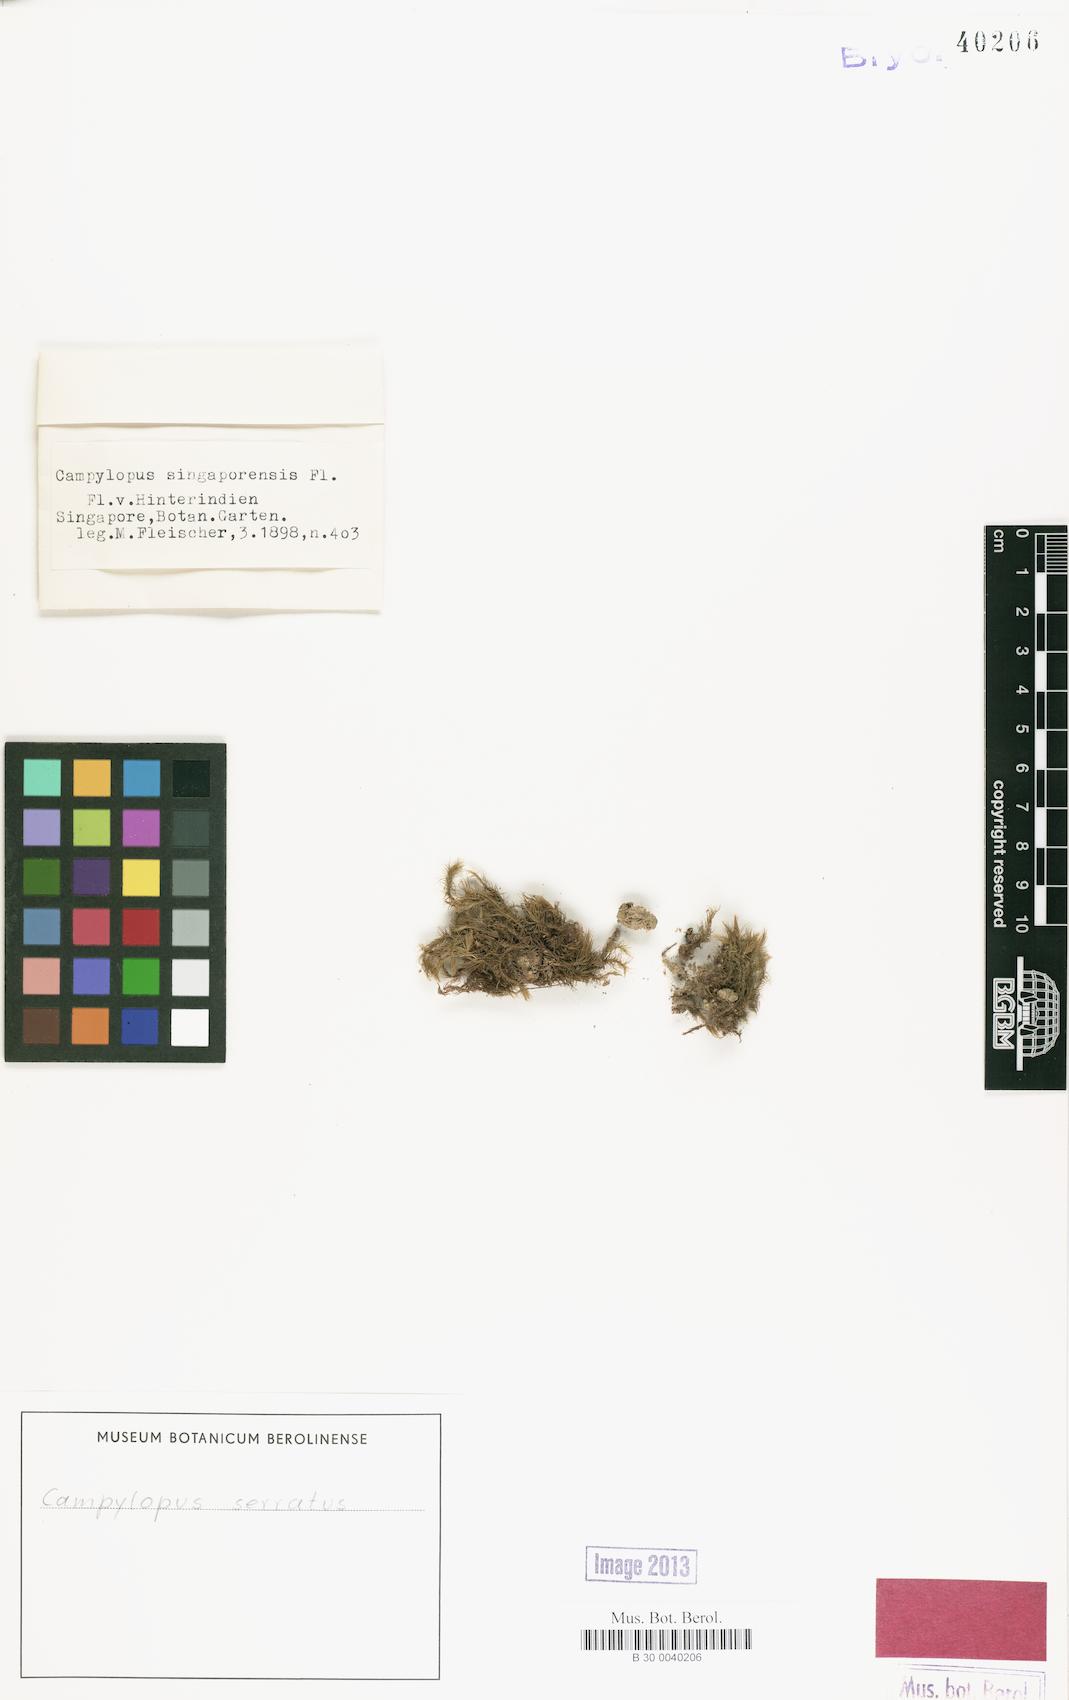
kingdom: Plantae
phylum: Bryophyta
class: Bryopsida
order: Dicranales
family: Leucobryaceae
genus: Campylopus
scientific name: Campylopus serratus
